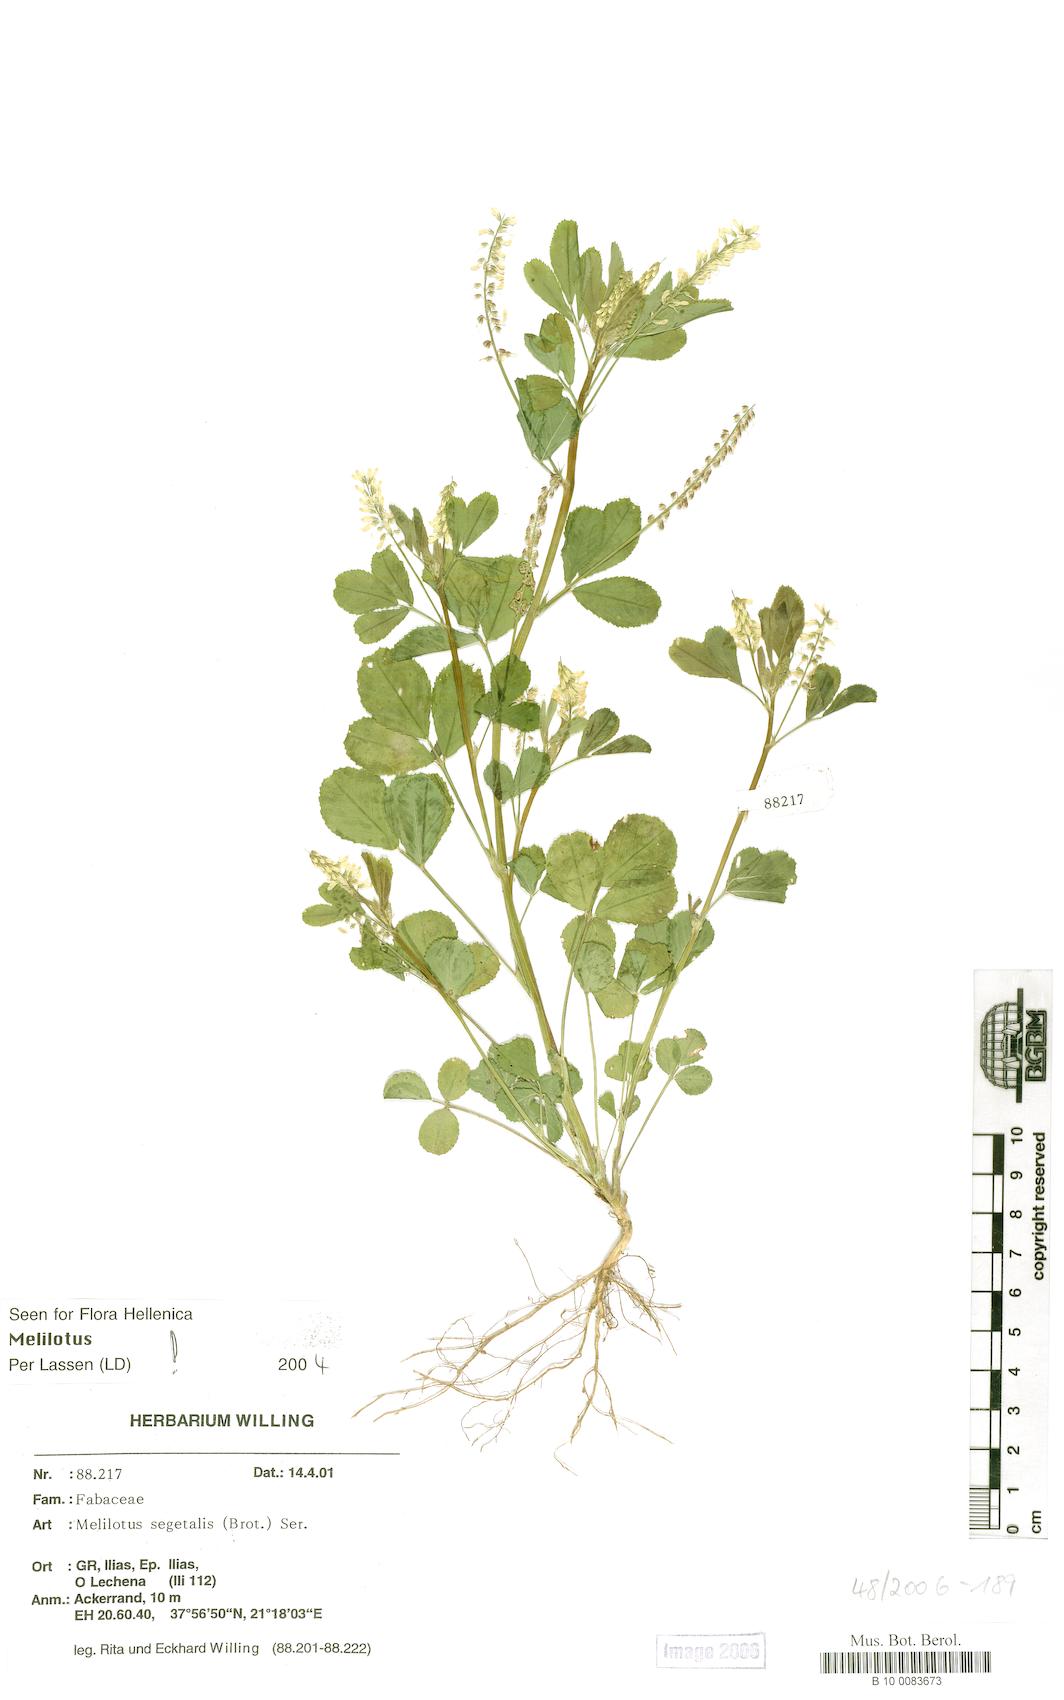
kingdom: Plantae
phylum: Tracheophyta
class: Magnoliopsida
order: Fabales
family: Fabaceae
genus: Melilotus
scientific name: Melilotus segetalis
